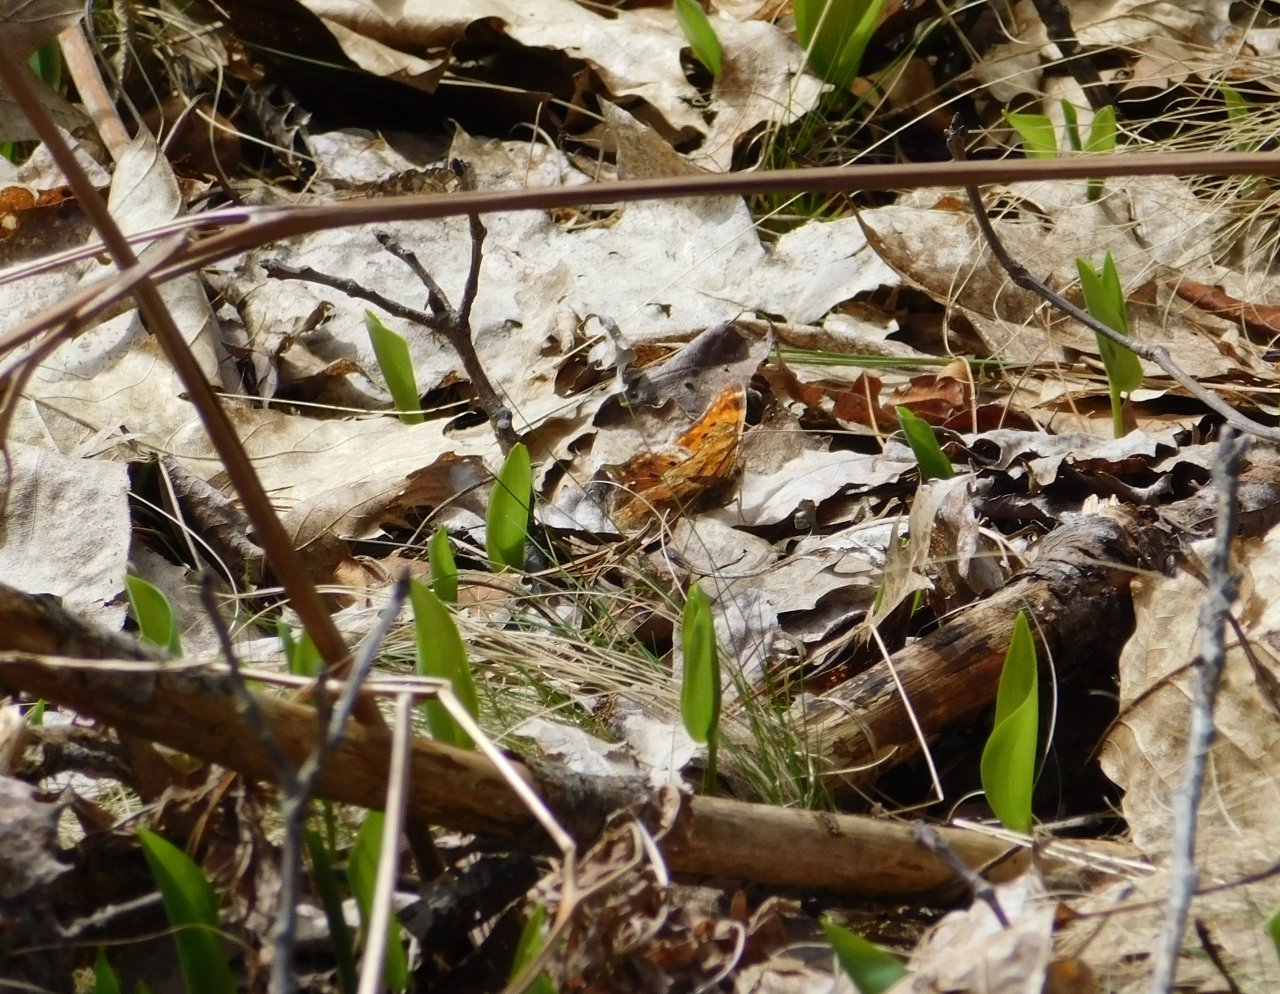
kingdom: Animalia
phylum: Arthropoda
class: Insecta
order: Lepidoptera
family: Nymphalidae
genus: Polygonia
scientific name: Polygonia comma
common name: Eastern Comma
